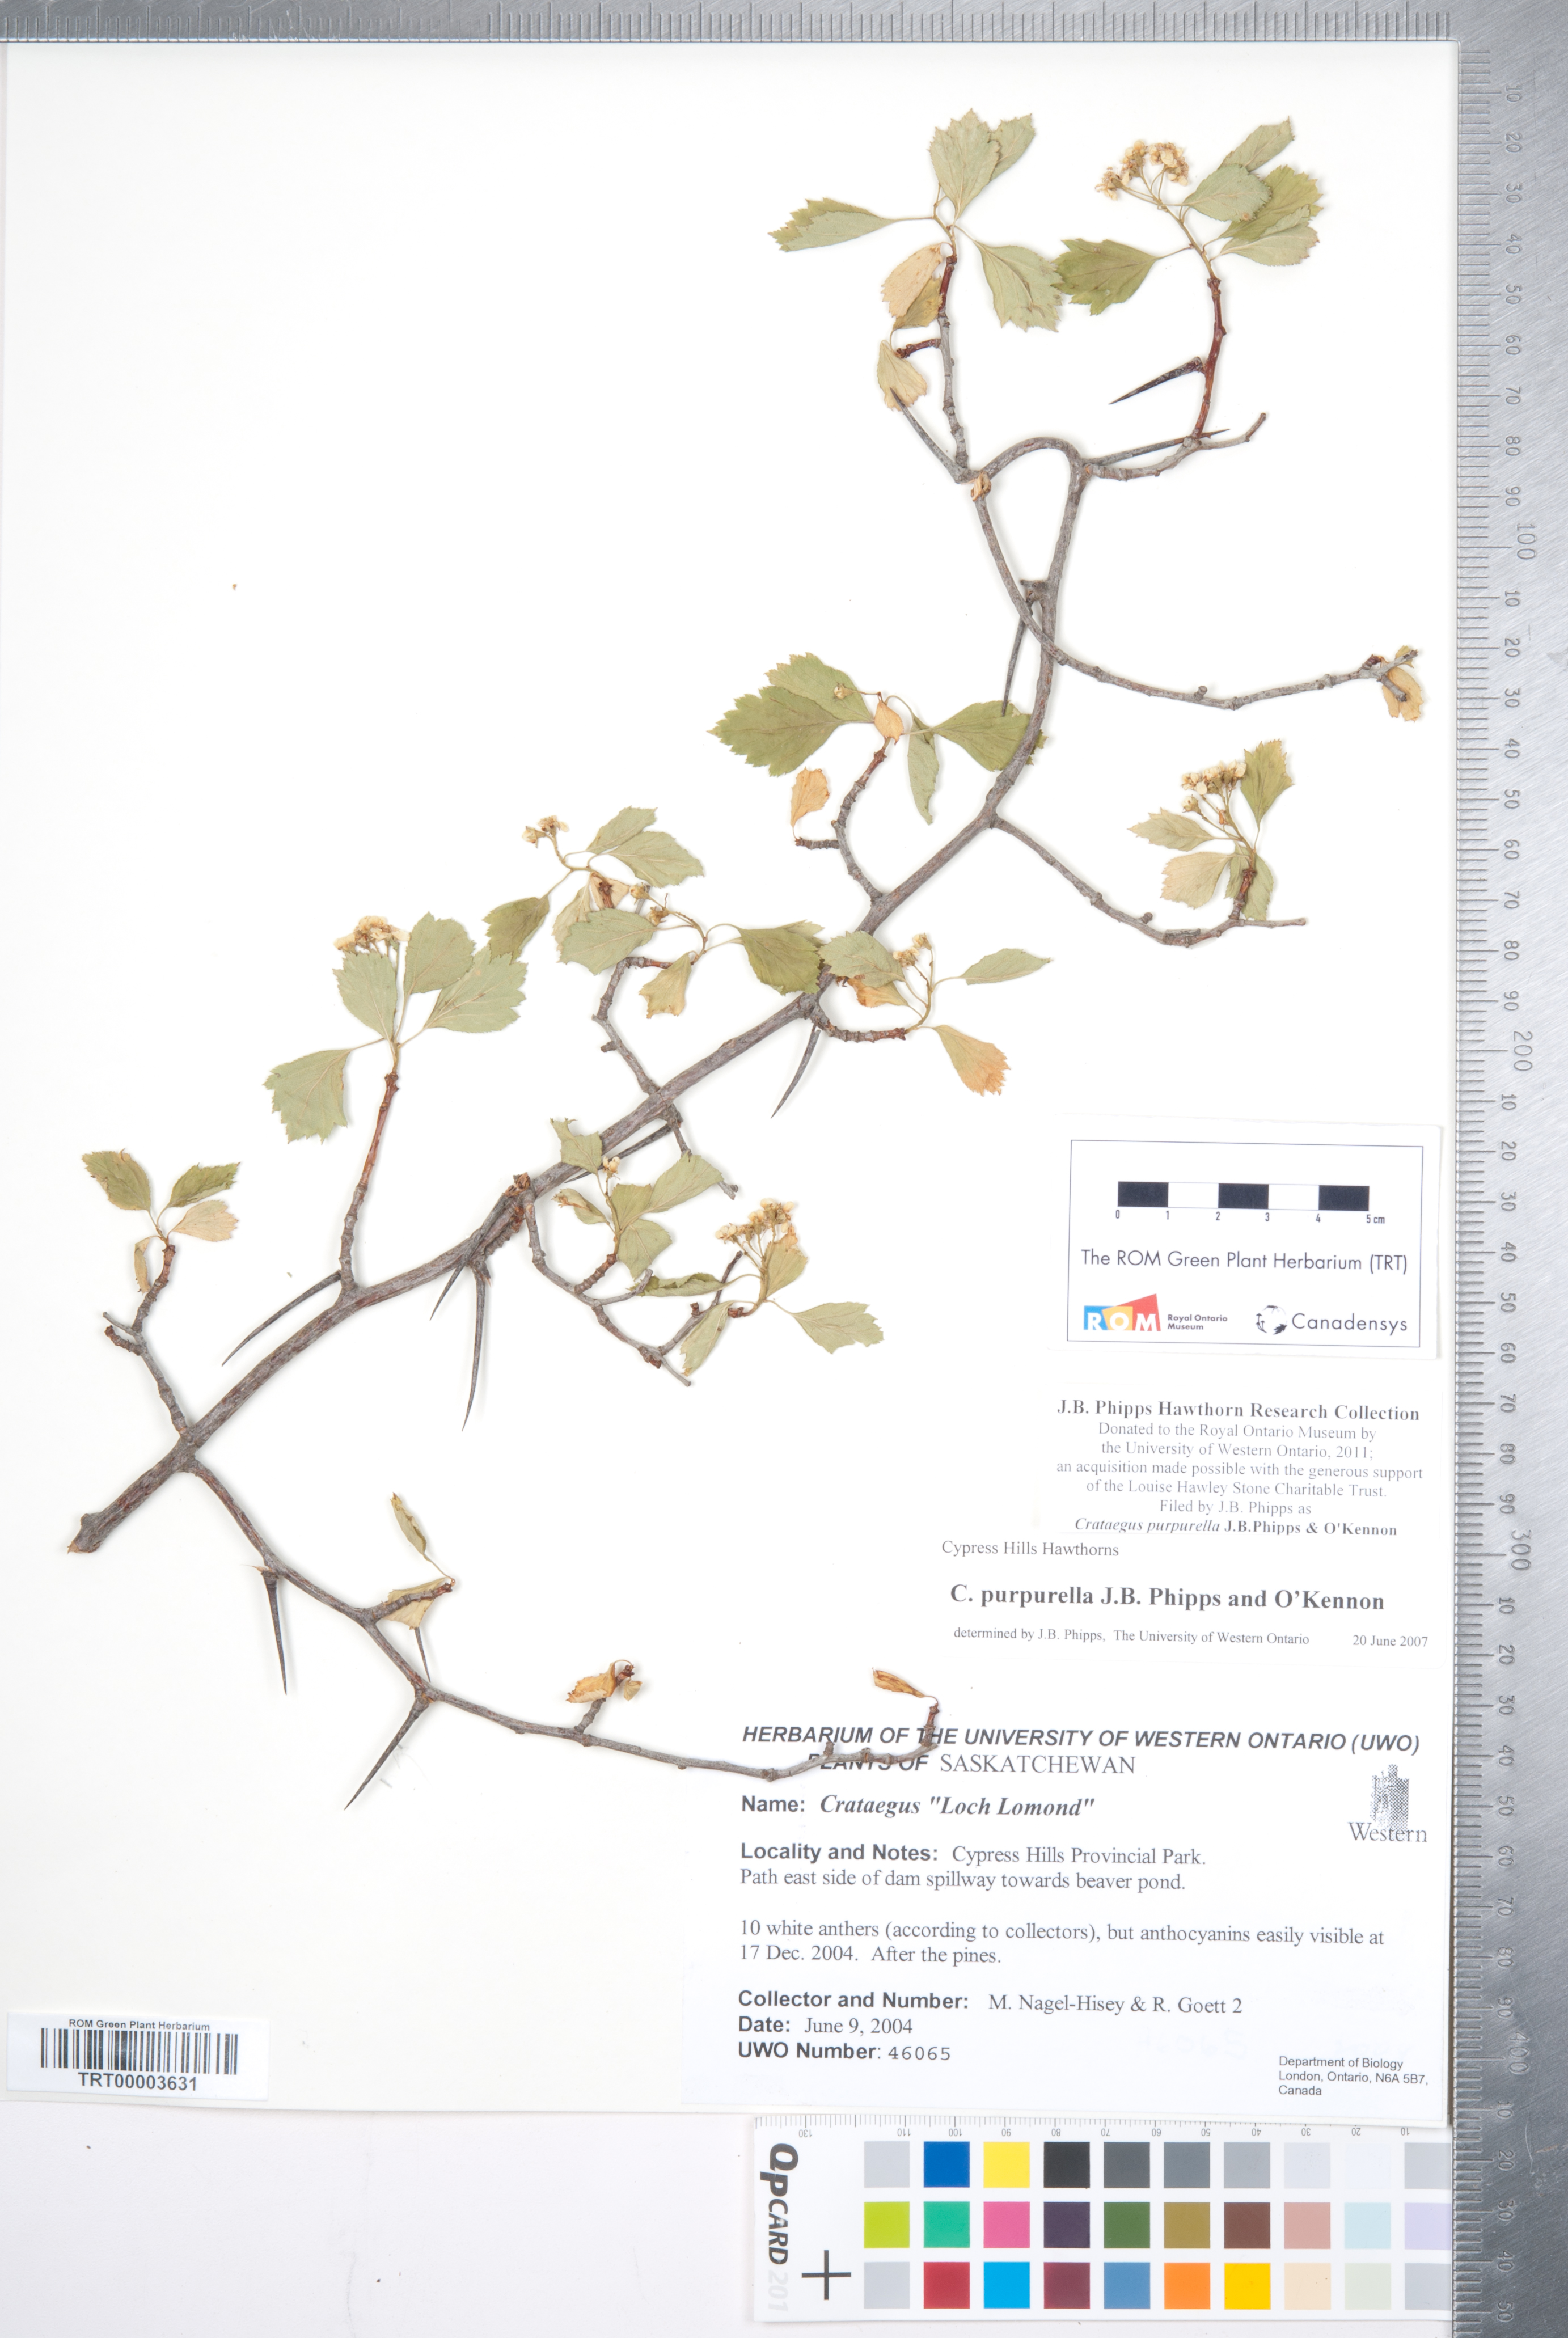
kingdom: Plantae
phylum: Tracheophyta
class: Magnoliopsida
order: Rosales
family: Rosaceae
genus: Crataegus
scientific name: Crataegus purpurella
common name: Loch lomond hawthorn
